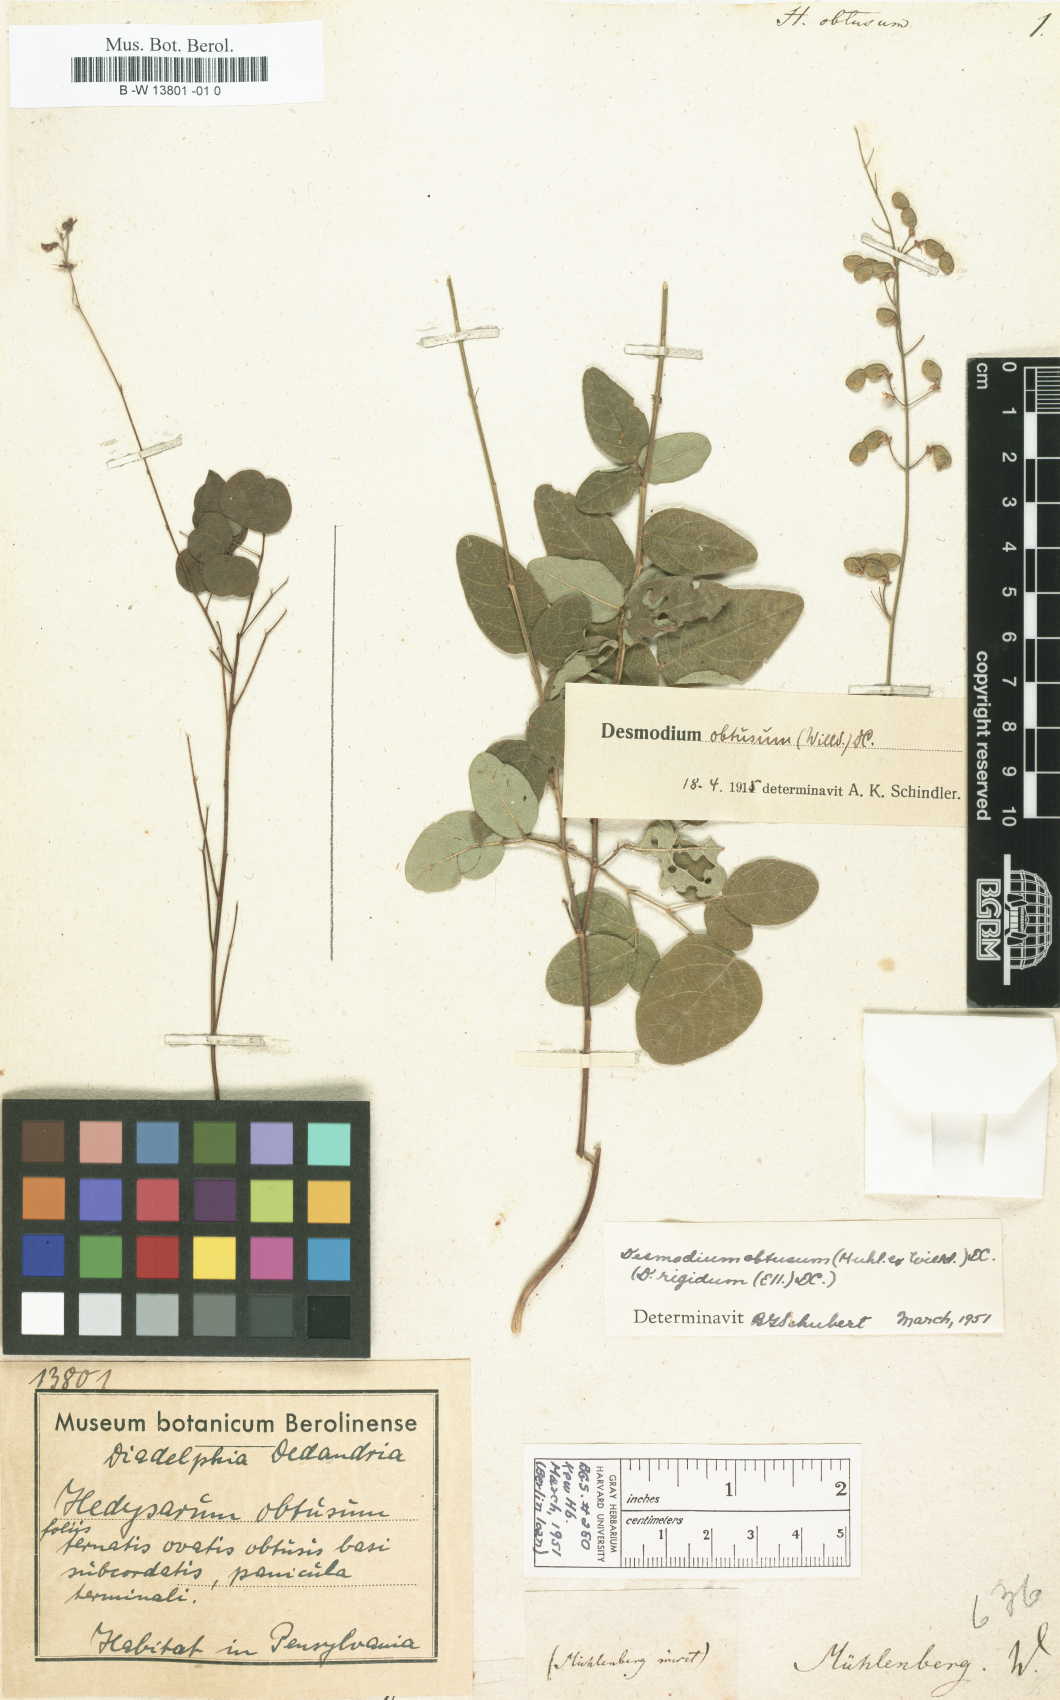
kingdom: Plantae
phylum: Tracheophyta
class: Magnoliopsida
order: Fabales
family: Fabaceae
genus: Desmodium
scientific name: Desmodium obtusum
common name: Stiff tick trefoil
